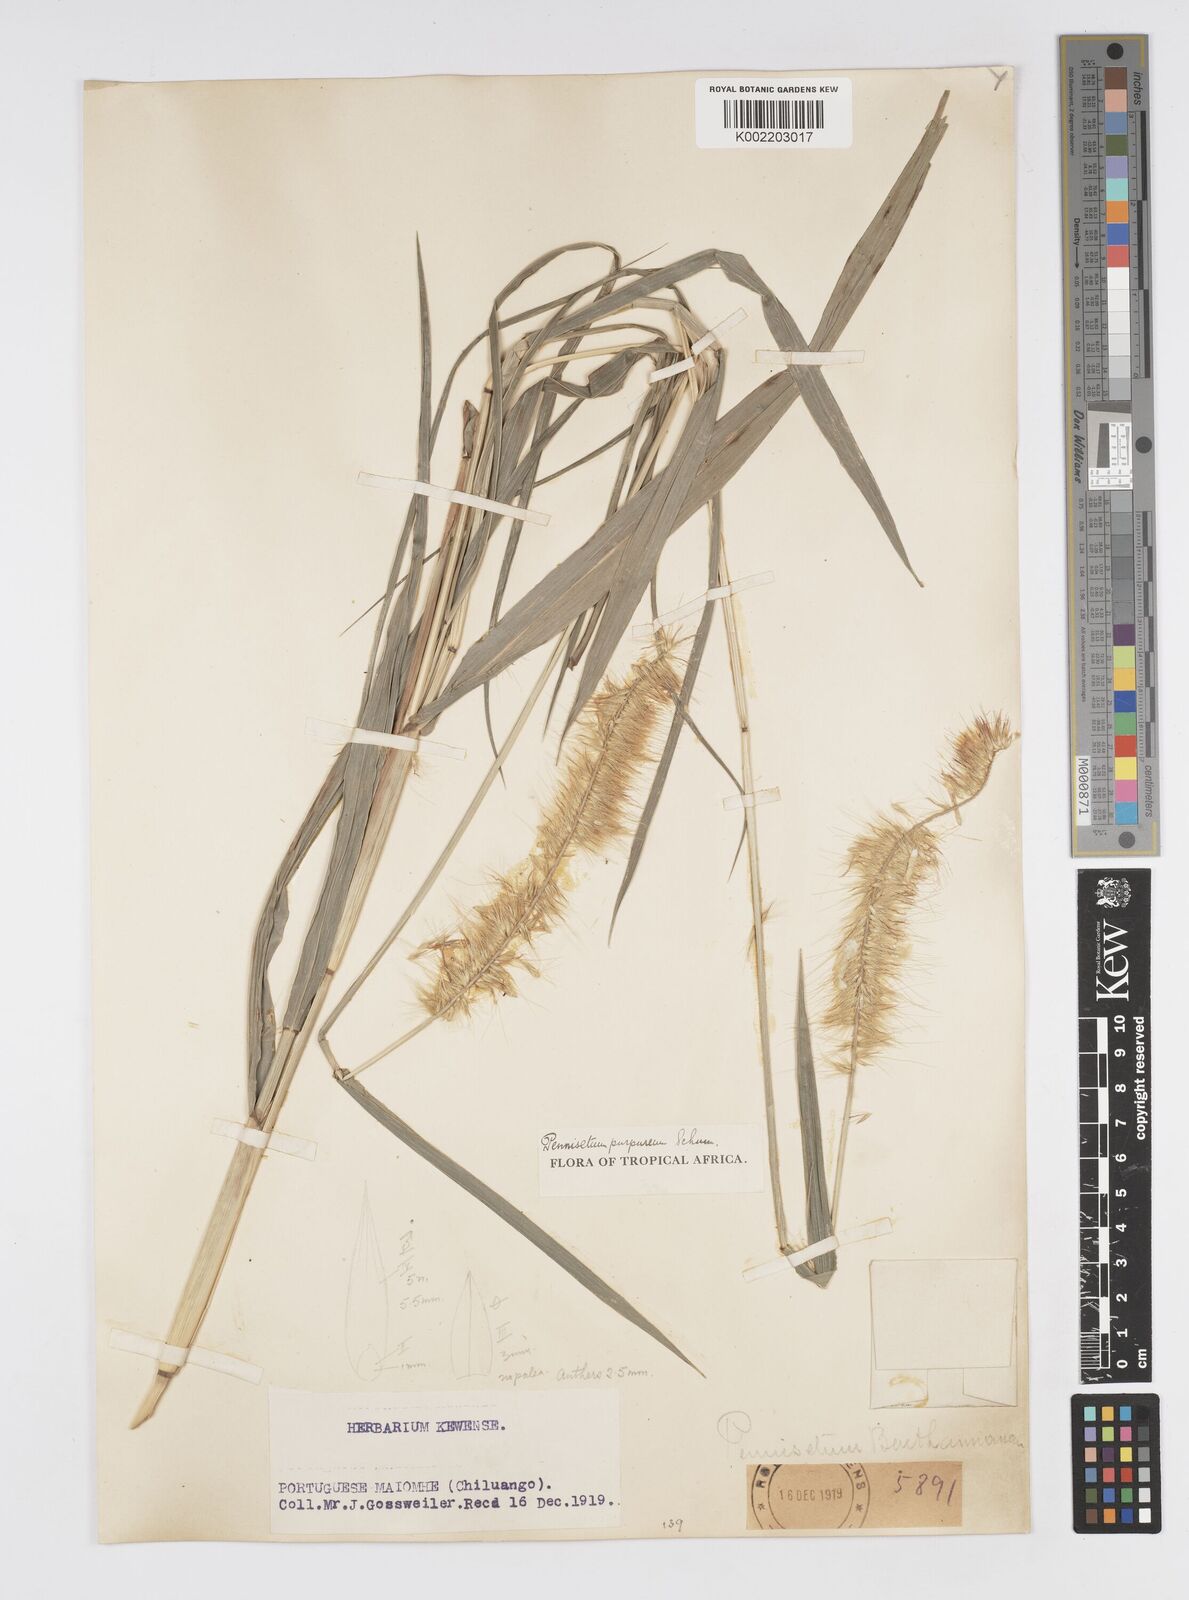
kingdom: Plantae
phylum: Tracheophyta
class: Liliopsida
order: Poales
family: Poaceae
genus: Cenchrus
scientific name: Cenchrus purpureus
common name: Elephant grass
